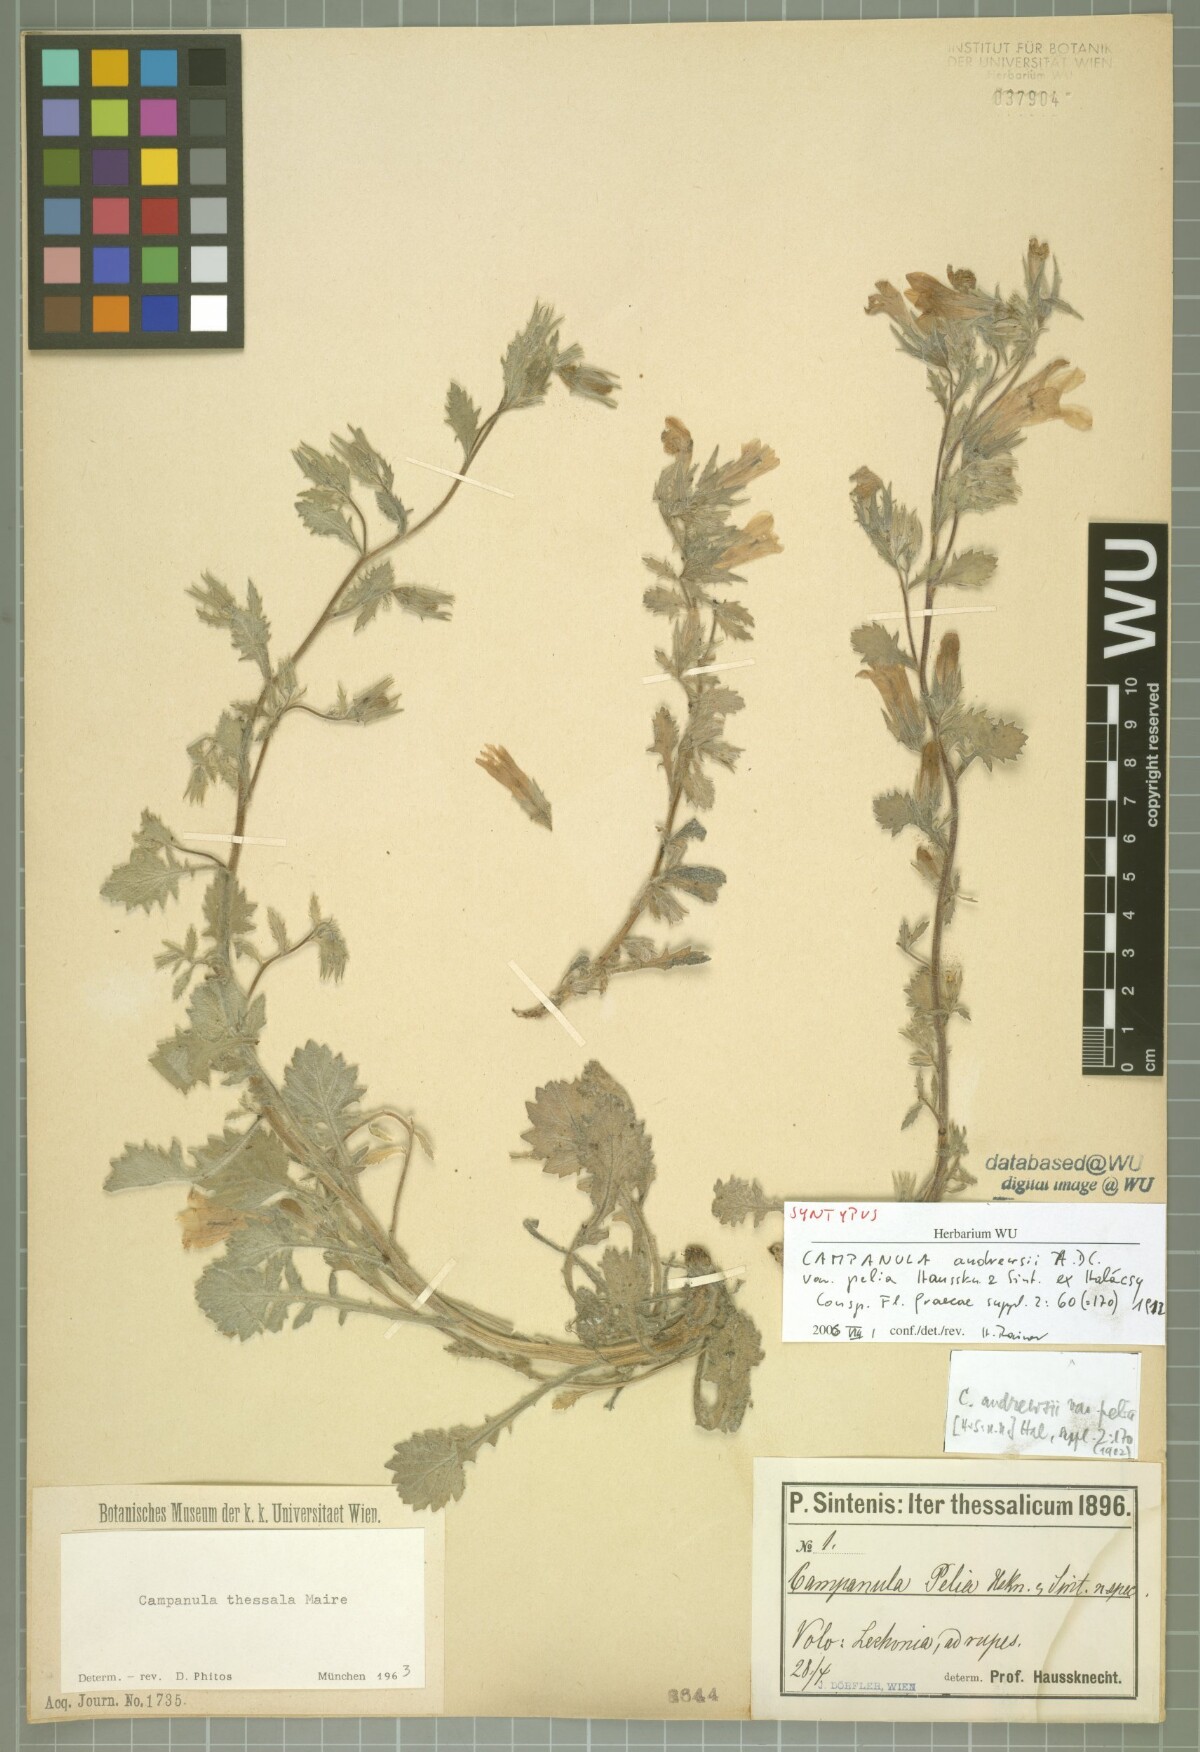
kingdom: Plantae
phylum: Tracheophyta
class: Magnoliopsida
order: Asterales
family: Campanulaceae
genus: Campanula
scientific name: Campanula pelia
